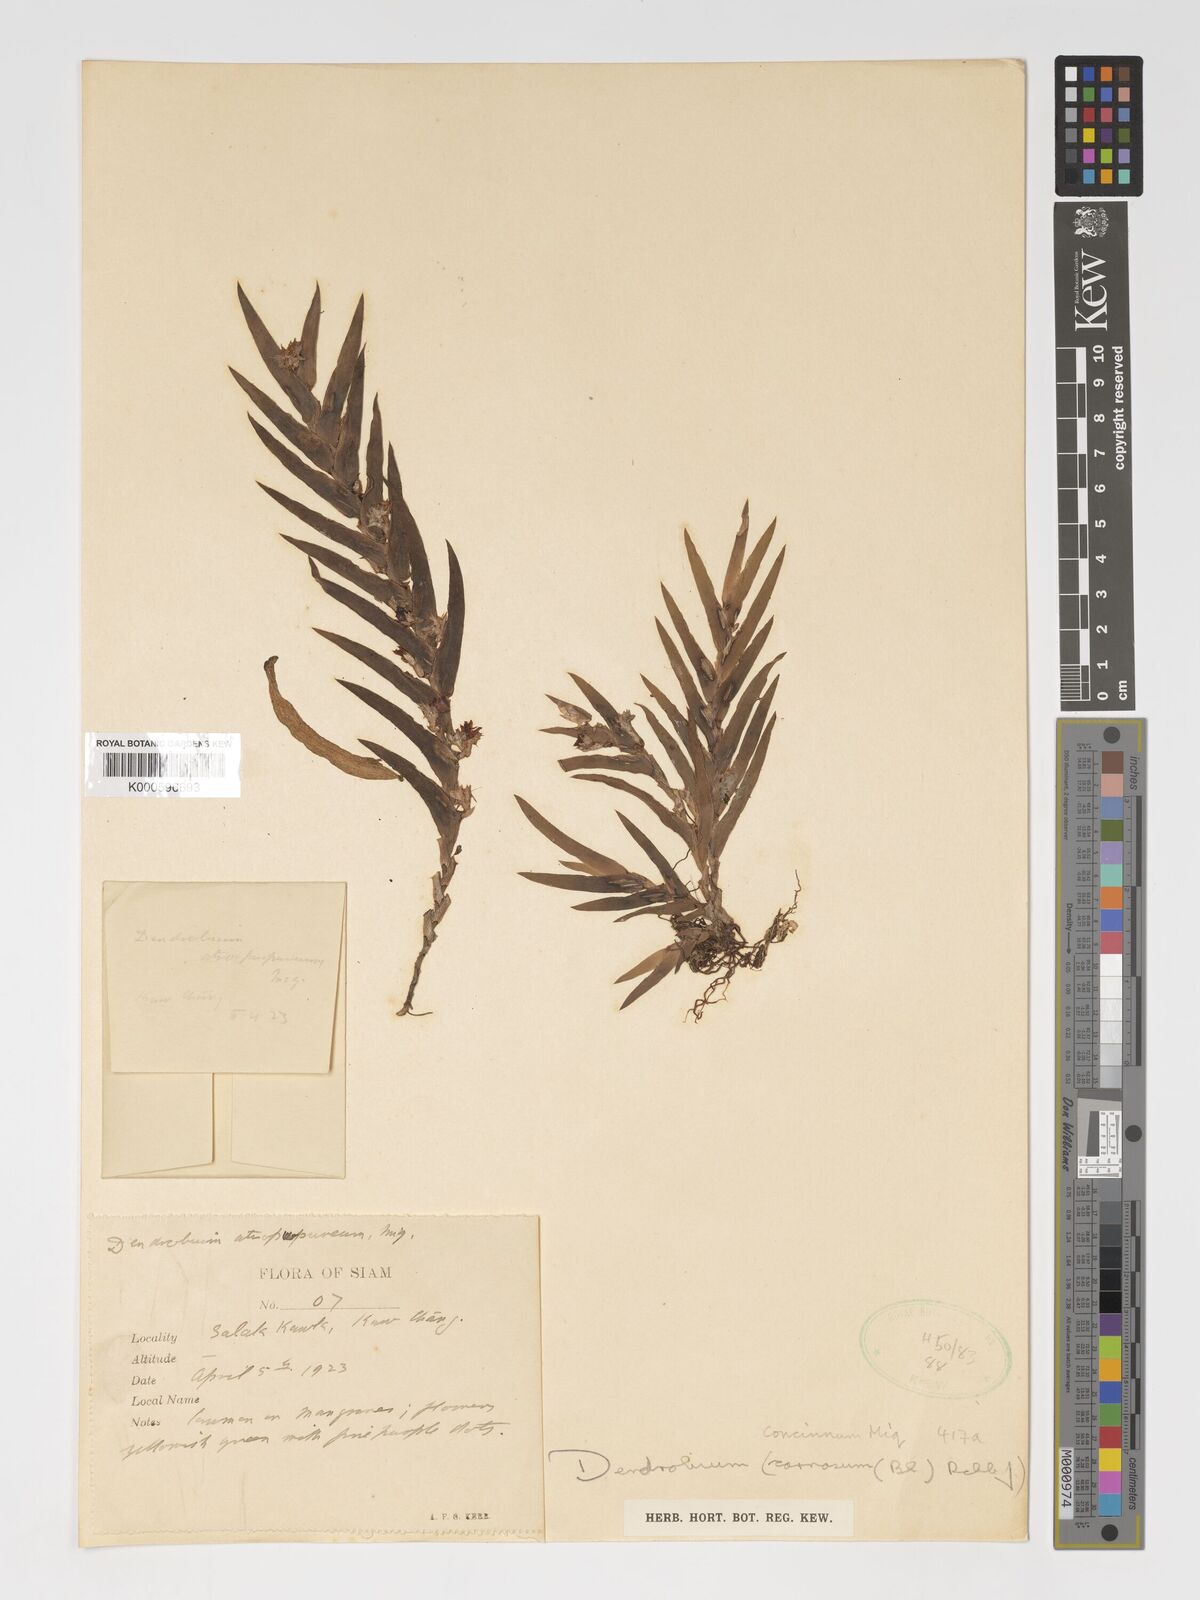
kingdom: Plantae
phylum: Tracheophyta
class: Liliopsida
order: Asparagales
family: Orchidaceae
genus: Oxystophyllum
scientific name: Oxystophyllum carnosum
